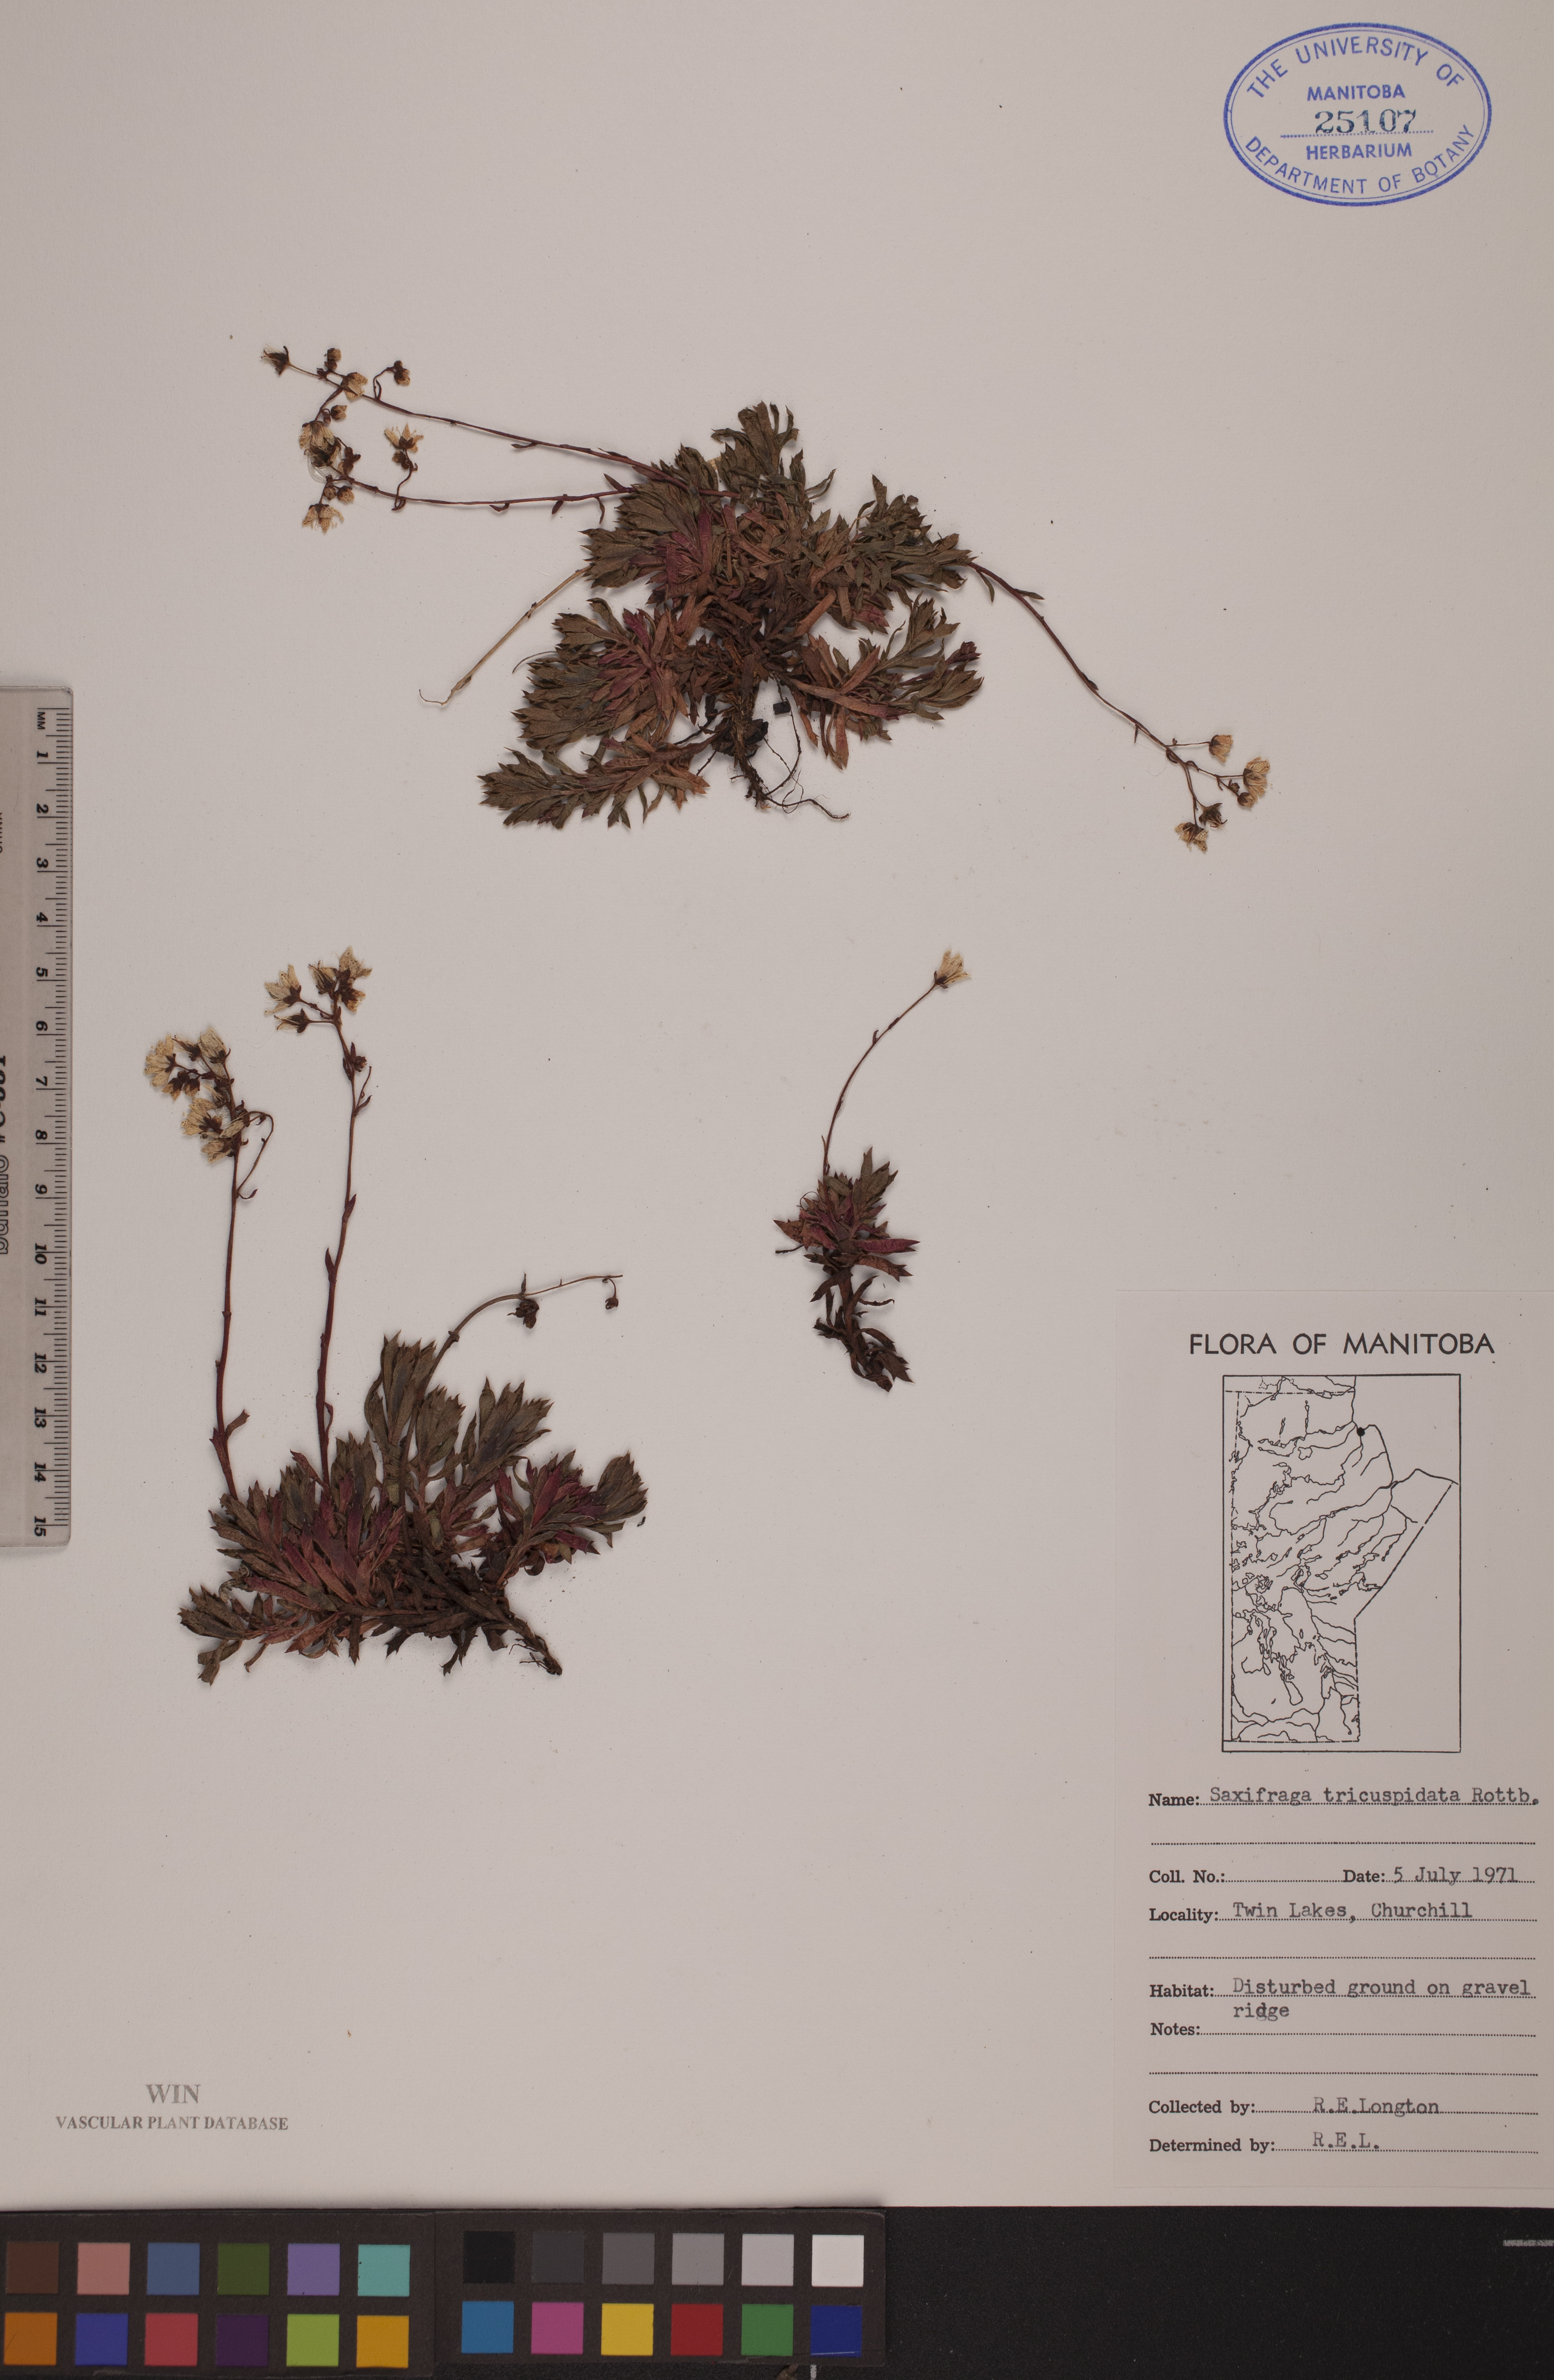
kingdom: Plantae
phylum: Tracheophyta
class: Magnoliopsida
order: Saxifragales
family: Saxifragaceae
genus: Saxifraga
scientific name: Saxifraga tricuspidata
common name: Prickly saxifrage
